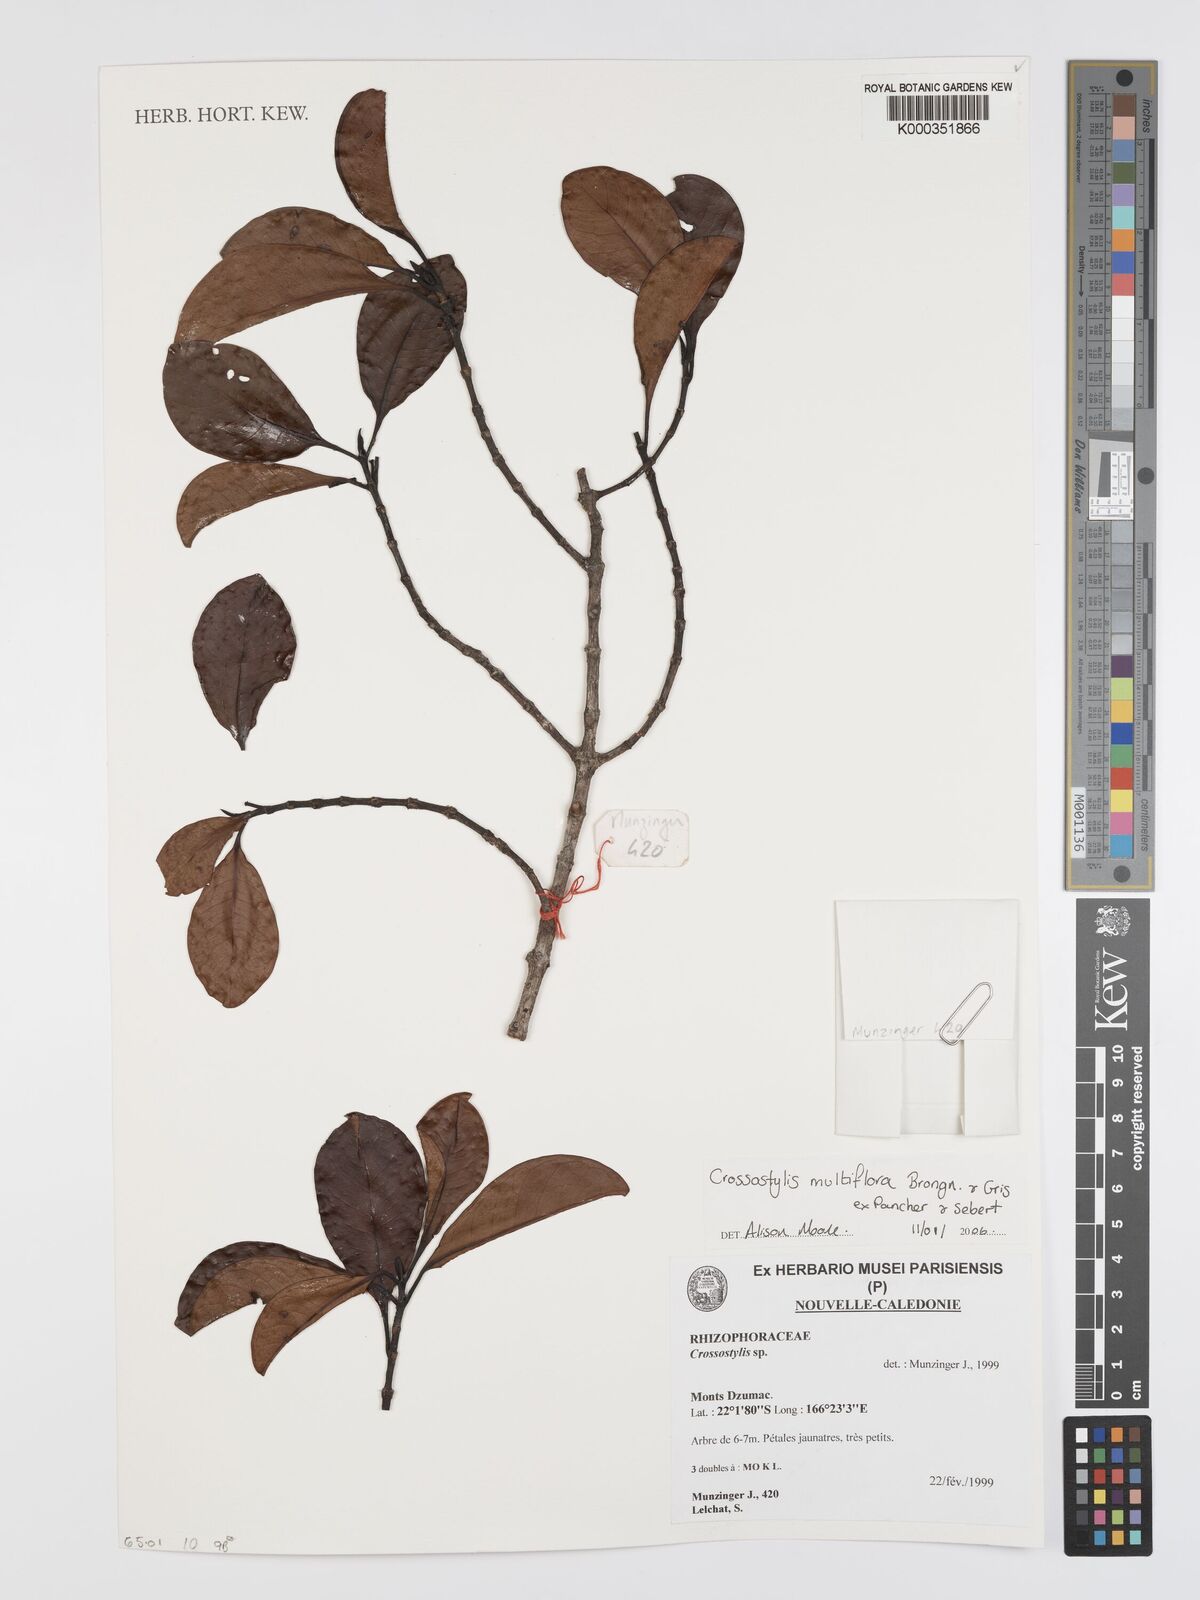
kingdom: Plantae
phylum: Tracheophyta
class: Magnoliopsida
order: Malpighiales
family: Rhizophoraceae
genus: Crossostylis
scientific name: Crossostylis
